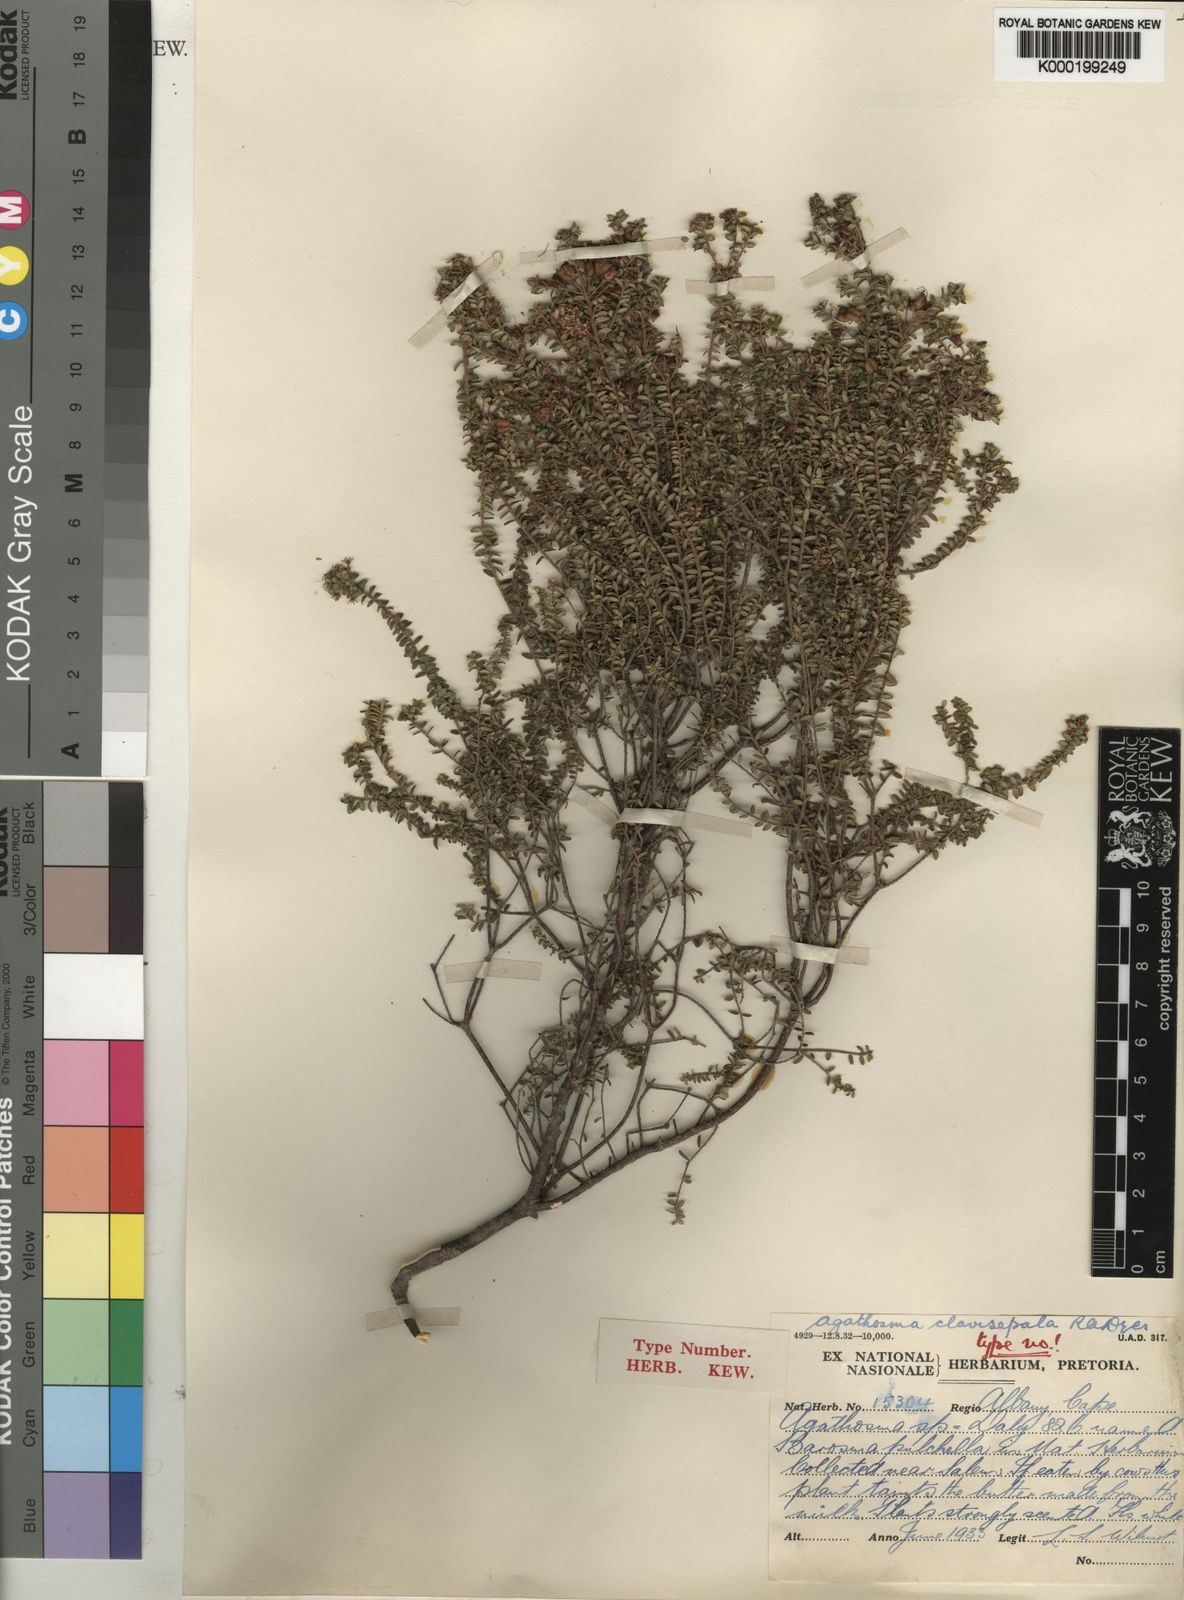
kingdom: Plantae
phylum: Tracheophyta
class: Magnoliopsida
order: Sapindales
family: Rutaceae
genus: Agathosma
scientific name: Agathosma clavisepala
